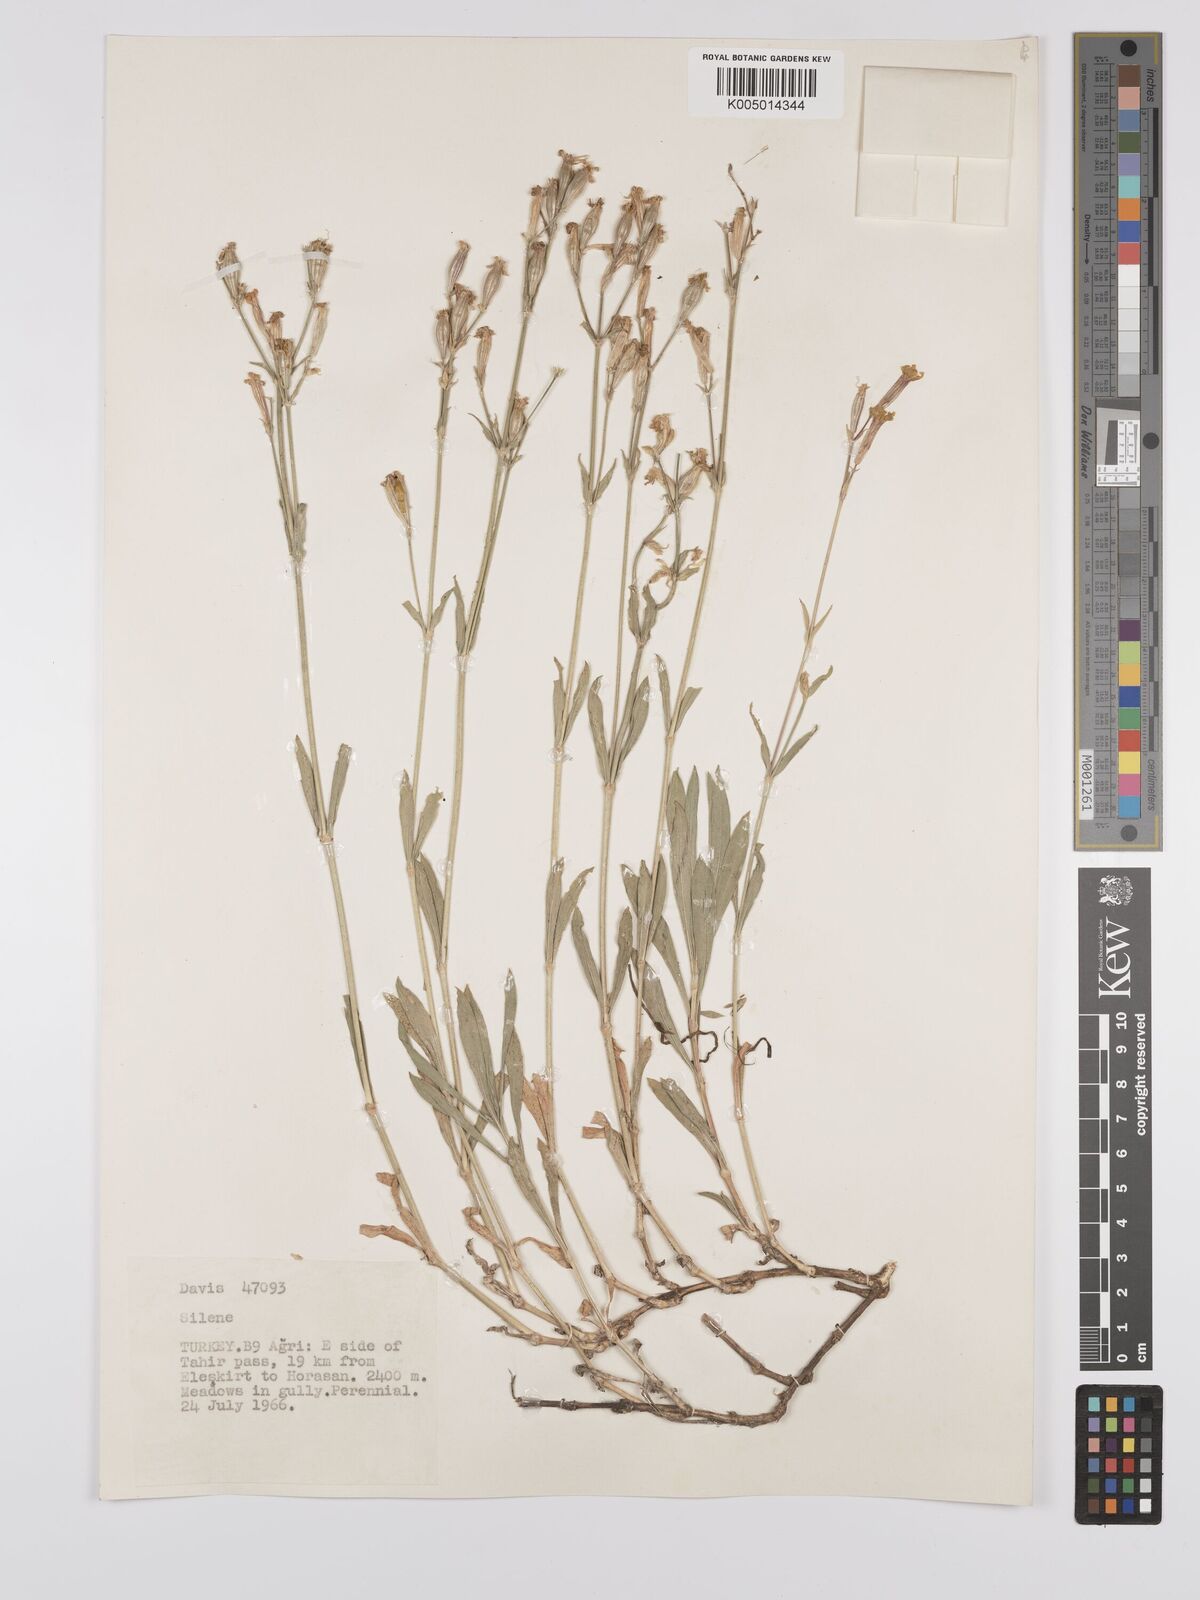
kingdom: Plantae
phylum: Tracheophyta
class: Magnoliopsida
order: Caryophyllales
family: Caryophyllaceae
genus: Silene
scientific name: Silene
